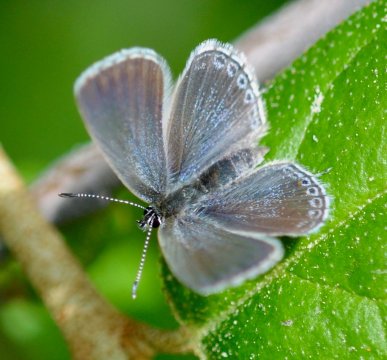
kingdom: Animalia
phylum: Arthropoda
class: Insecta
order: Lepidoptera
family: Lycaenidae
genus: Elkalyce
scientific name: Elkalyce amyntula
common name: Western Tailed-Blue
